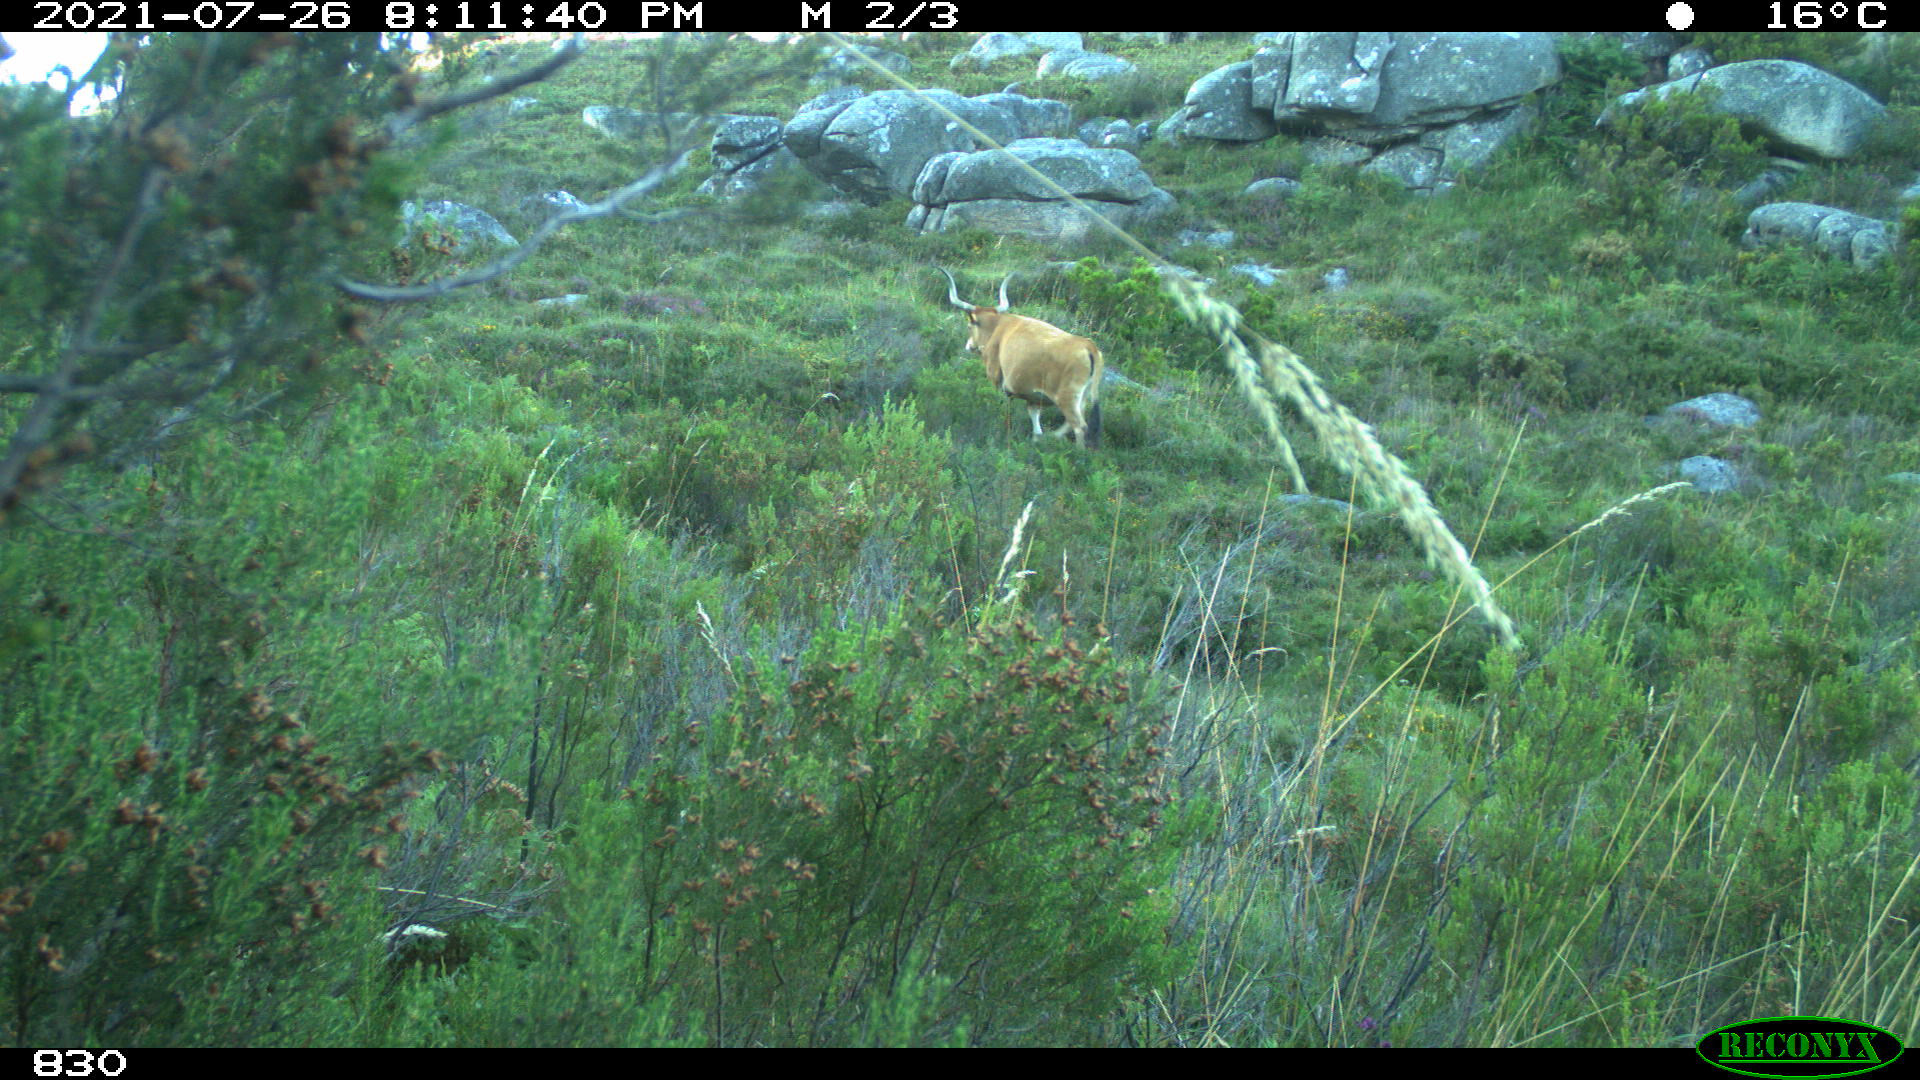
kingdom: Animalia
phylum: Chordata
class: Mammalia
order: Artiodactyla
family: Bovidae
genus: Bos
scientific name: Bos taurus
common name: Domesticated cattle
